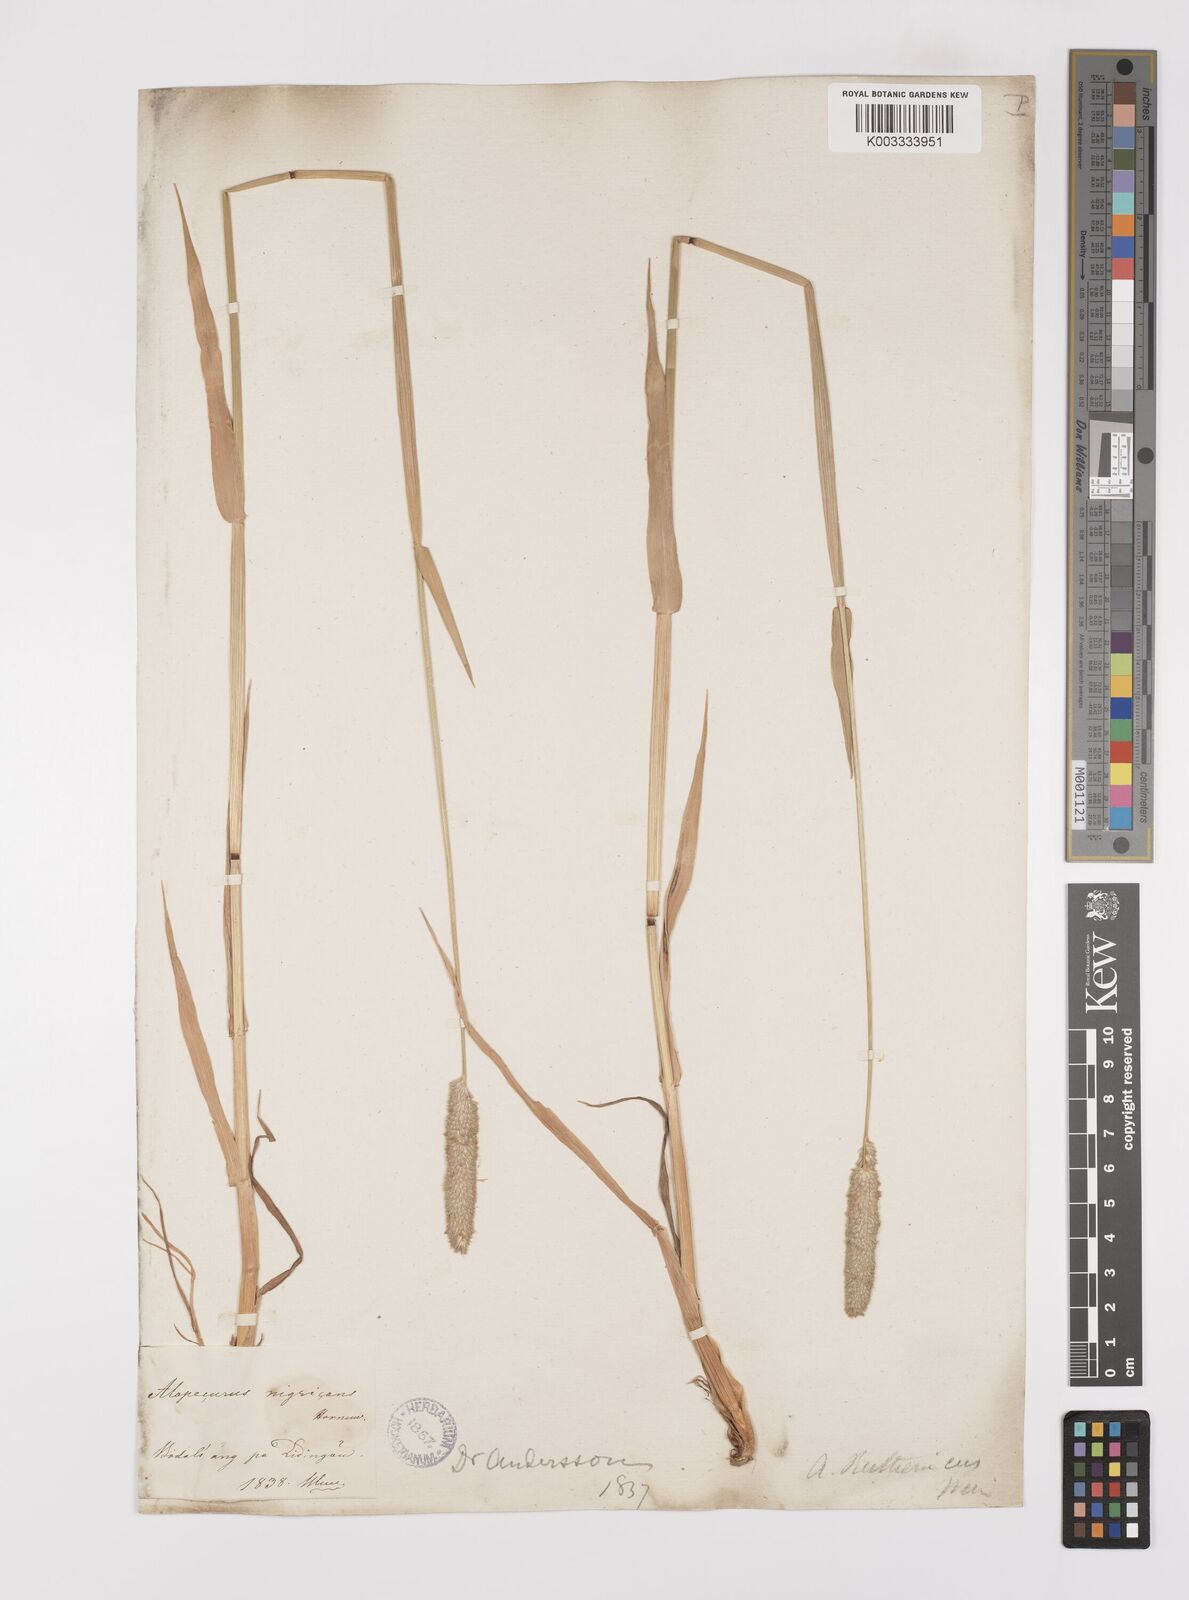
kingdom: Plantae
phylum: Tracheophyta
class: Liliopsida
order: Poales
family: Poaceae
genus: Alopecurus
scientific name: Alopecurus arundinaceus
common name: Creeping meadow foxtail
